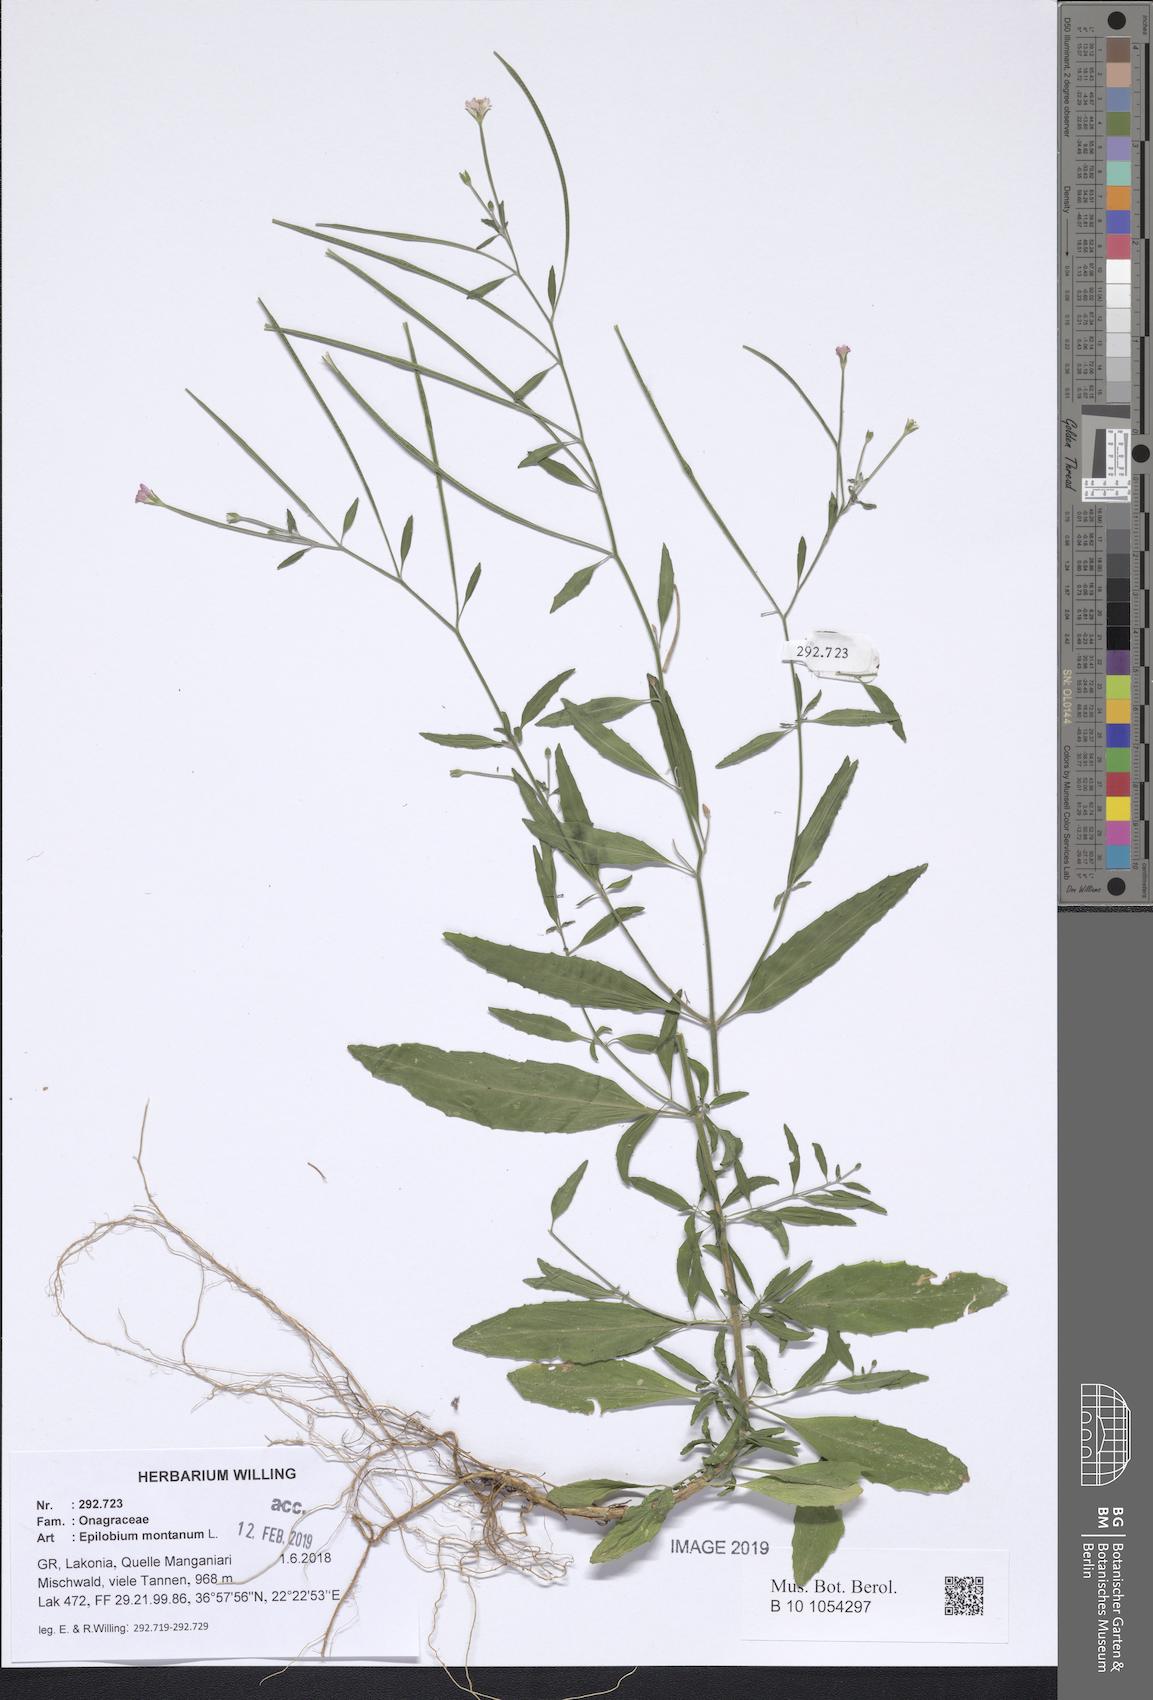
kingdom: Plantae
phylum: Tracheophyta
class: Magnoliopsida
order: Myrtales
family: Onagraceae
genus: Epilobium
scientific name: Epilobium lanceolatum
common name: Spear-leaved willowherb
